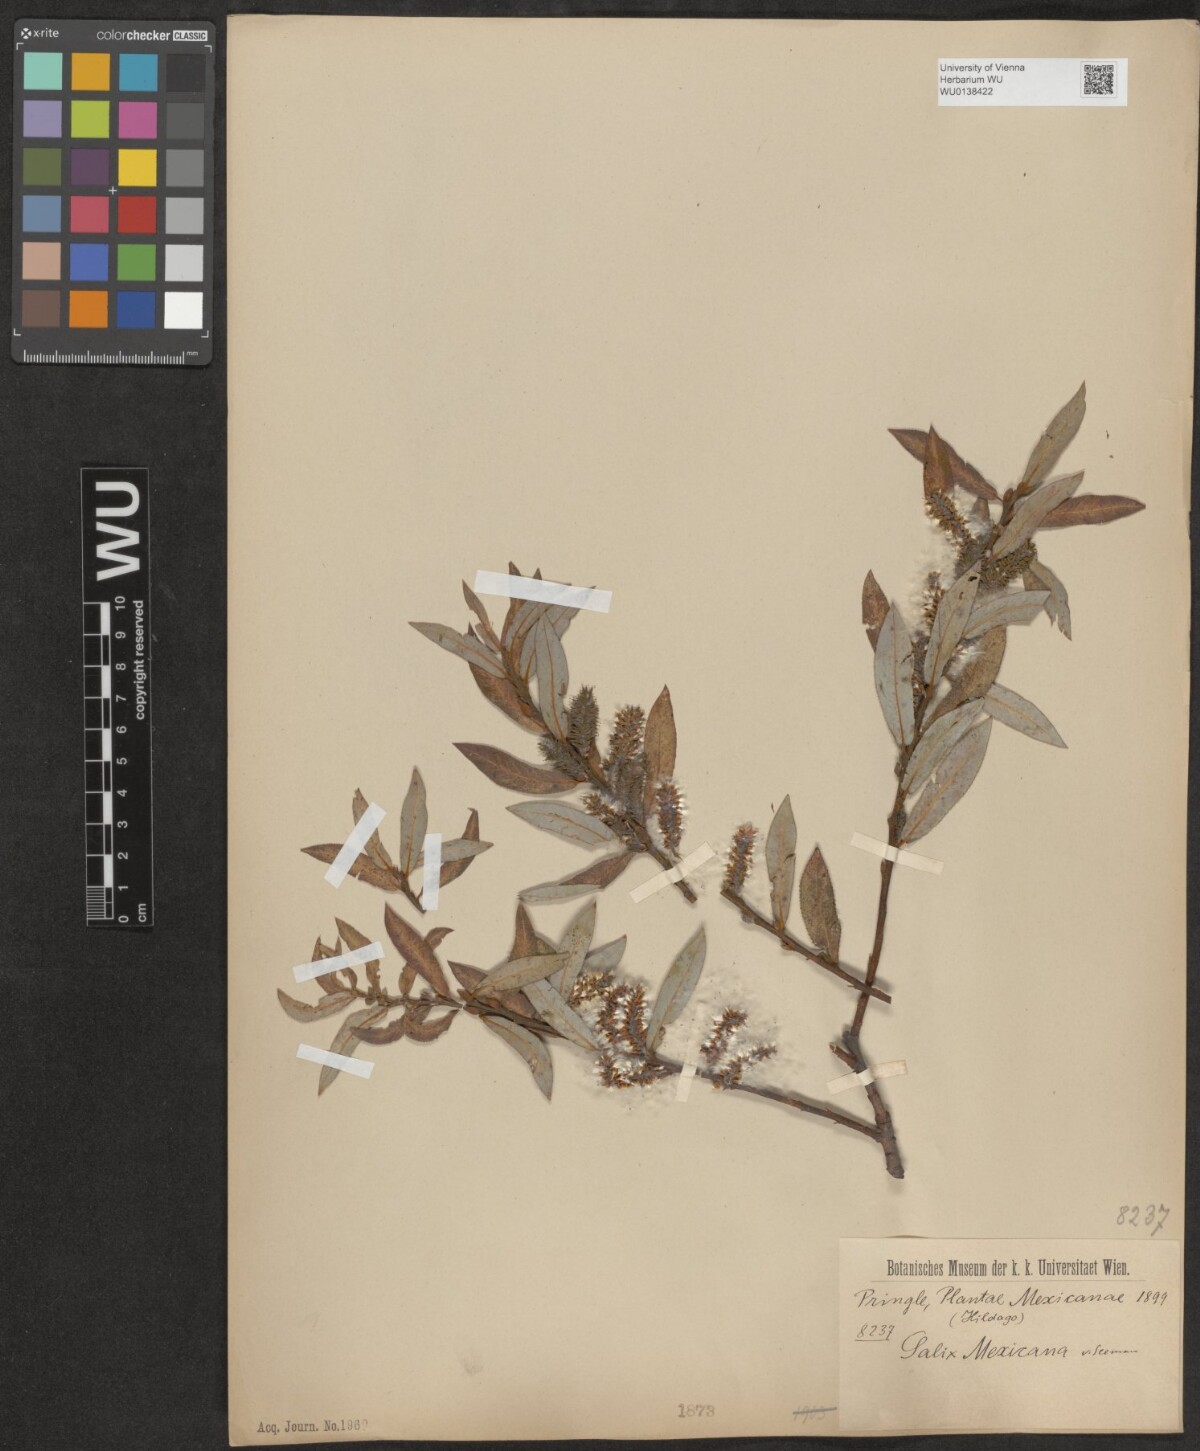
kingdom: Plantae
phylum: Tracheophyta
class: Magnoliopsida
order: Malpighiales
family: Salicaceae
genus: Salix
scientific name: Salix mexicana
